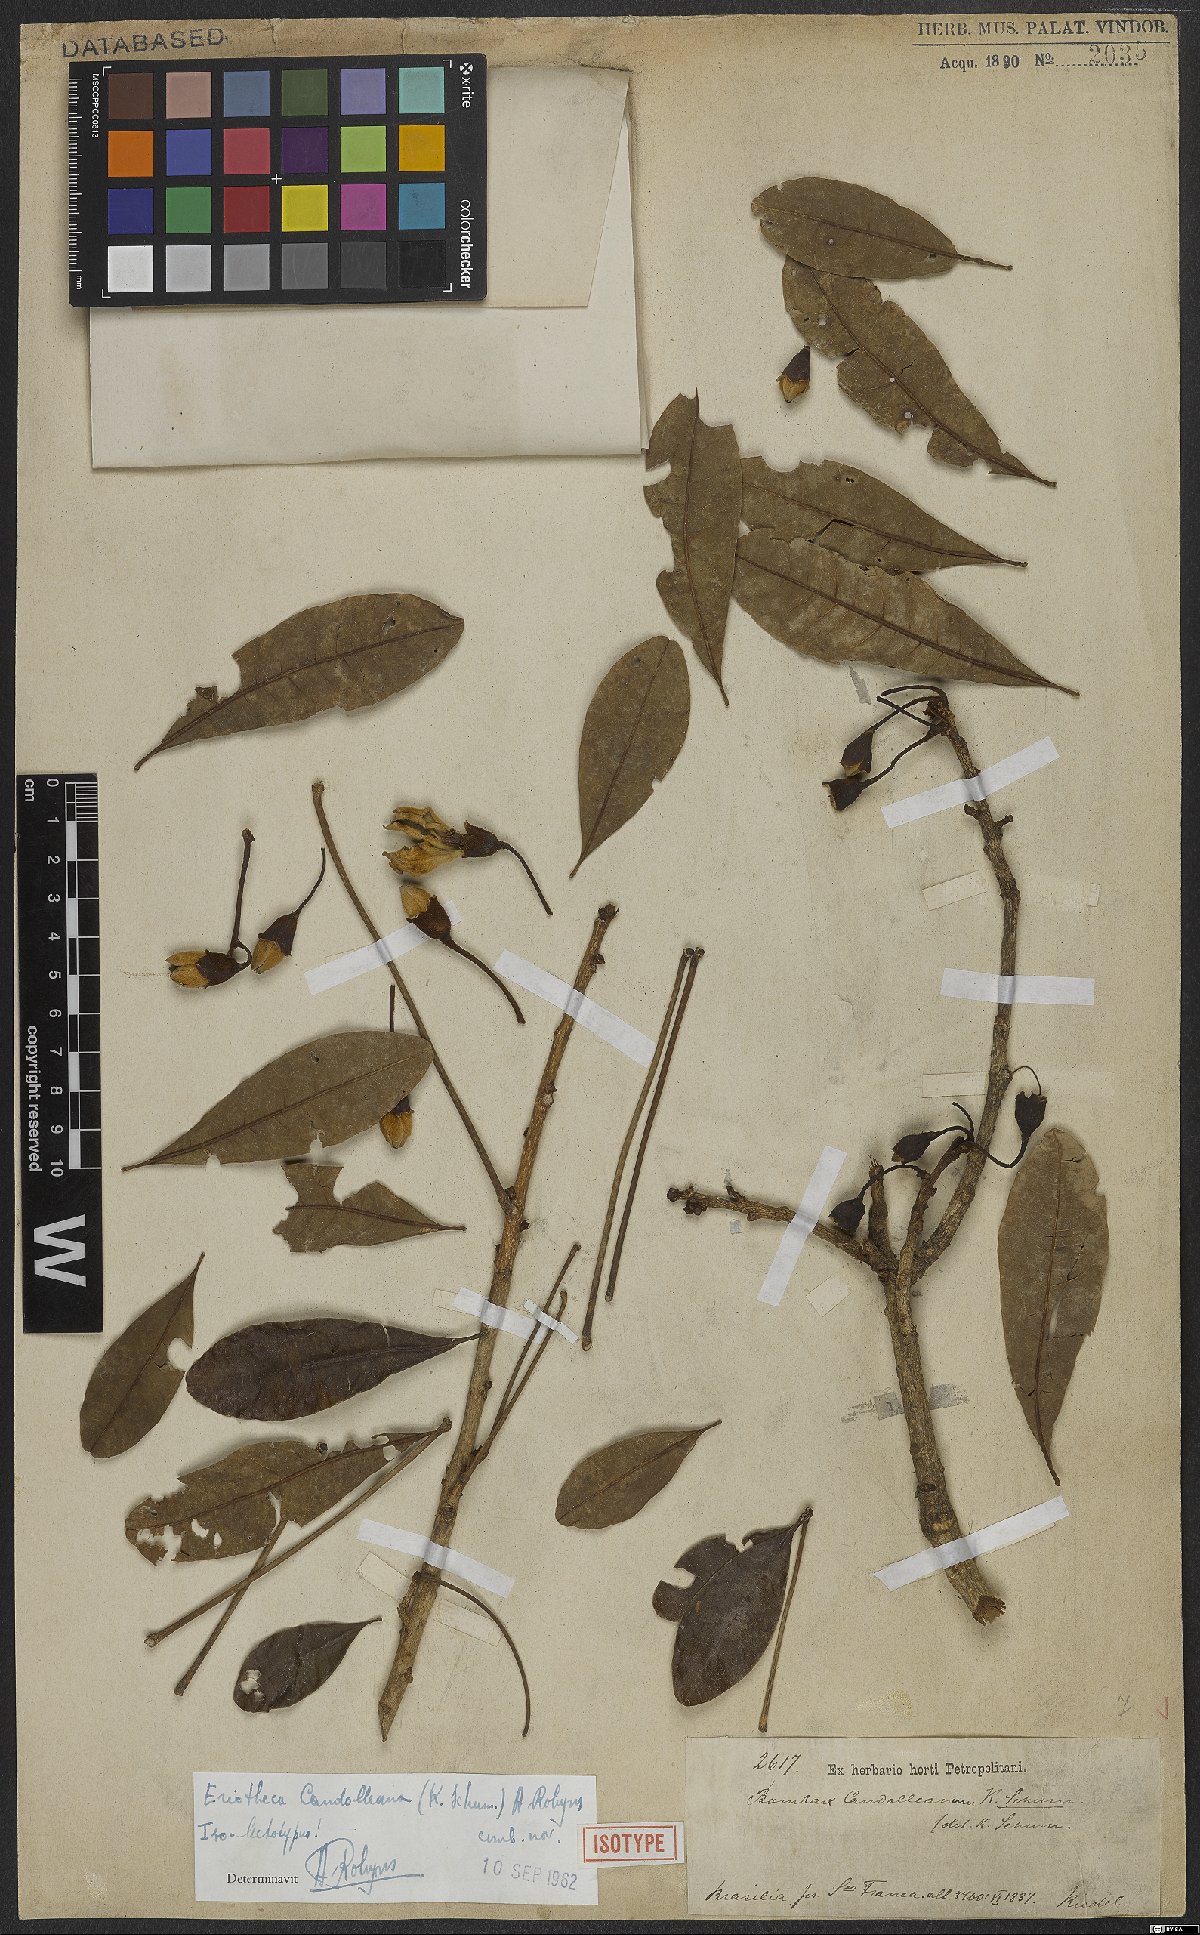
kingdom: Plantae
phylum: Tracheophyta
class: Magnoliopsida
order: Malvales
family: Malvaceae
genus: Eriotheca
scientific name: Eriotheca candolleana
